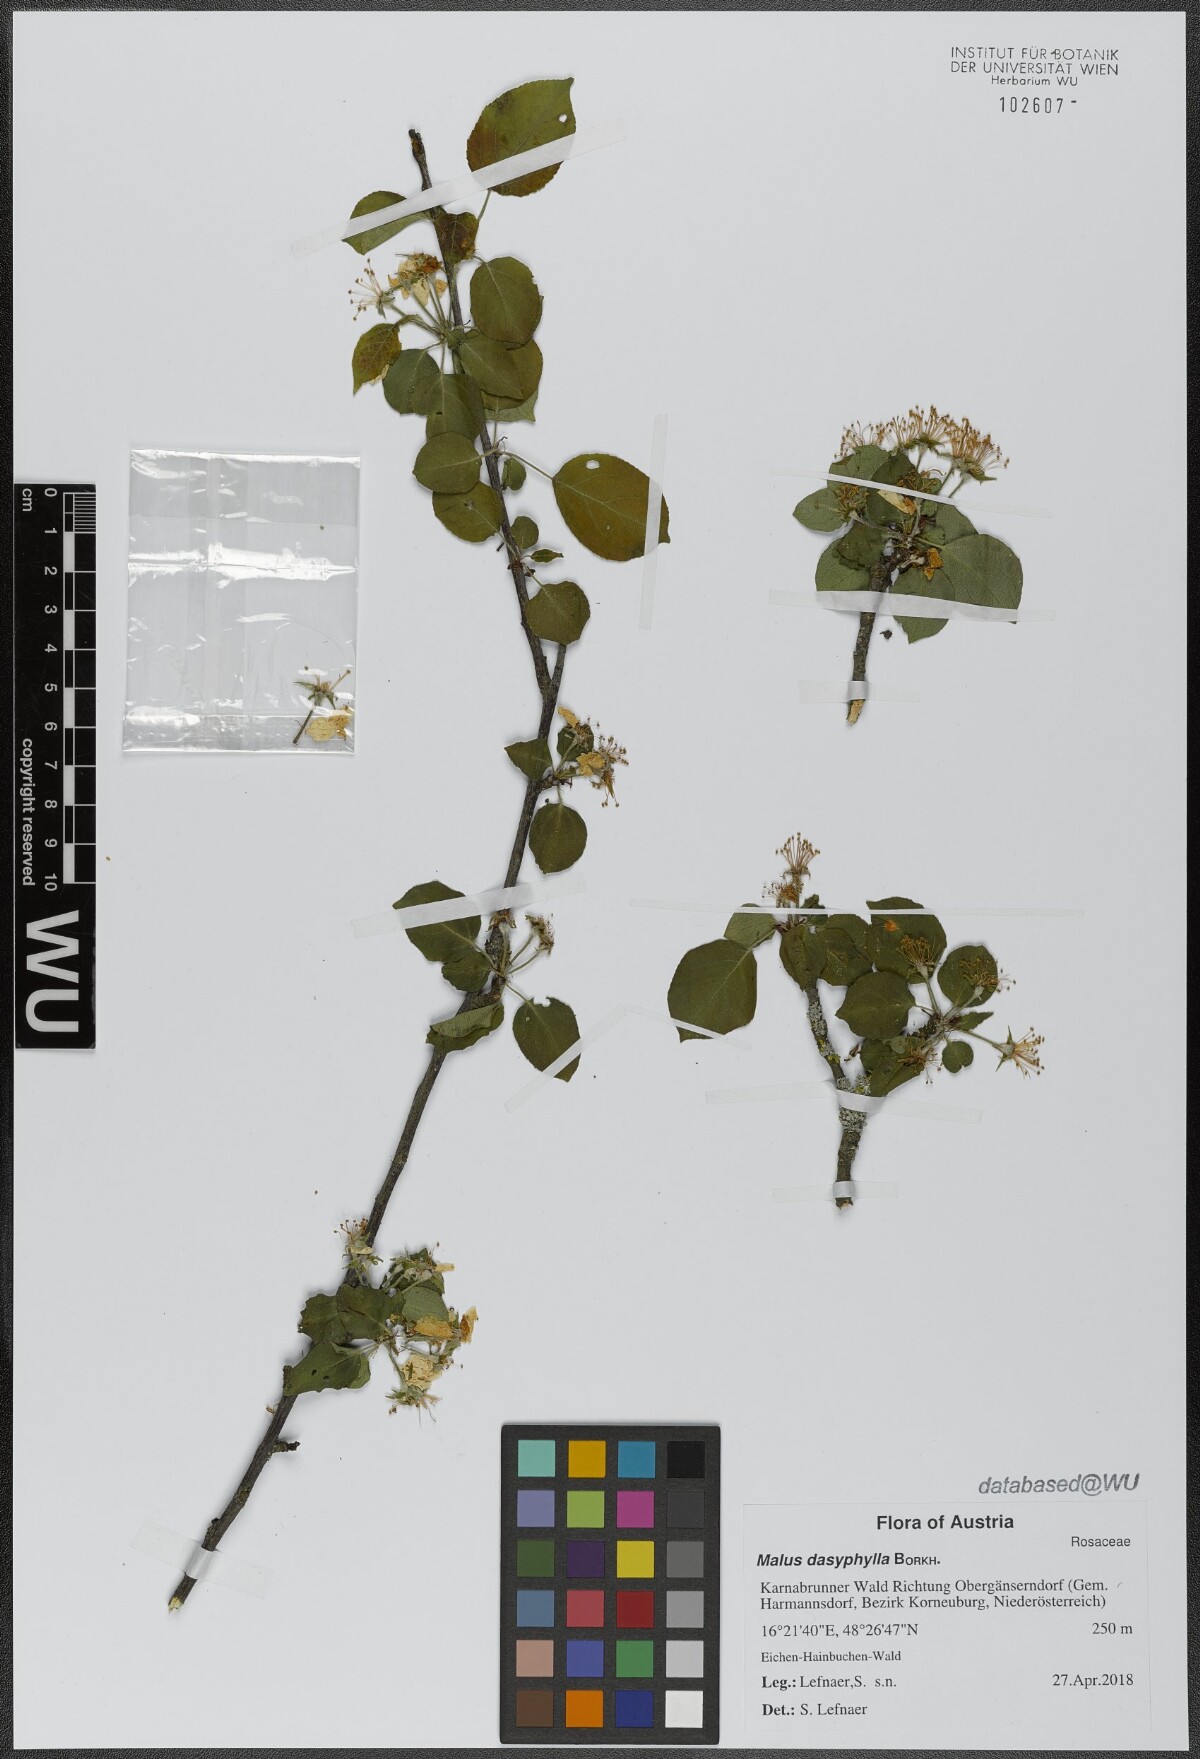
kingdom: Plantae
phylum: Tracheophyta
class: Magnoliopsida
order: Rosales
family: Rosaceae
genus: Malus
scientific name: Malus dasyphylla
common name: Paradise apple
